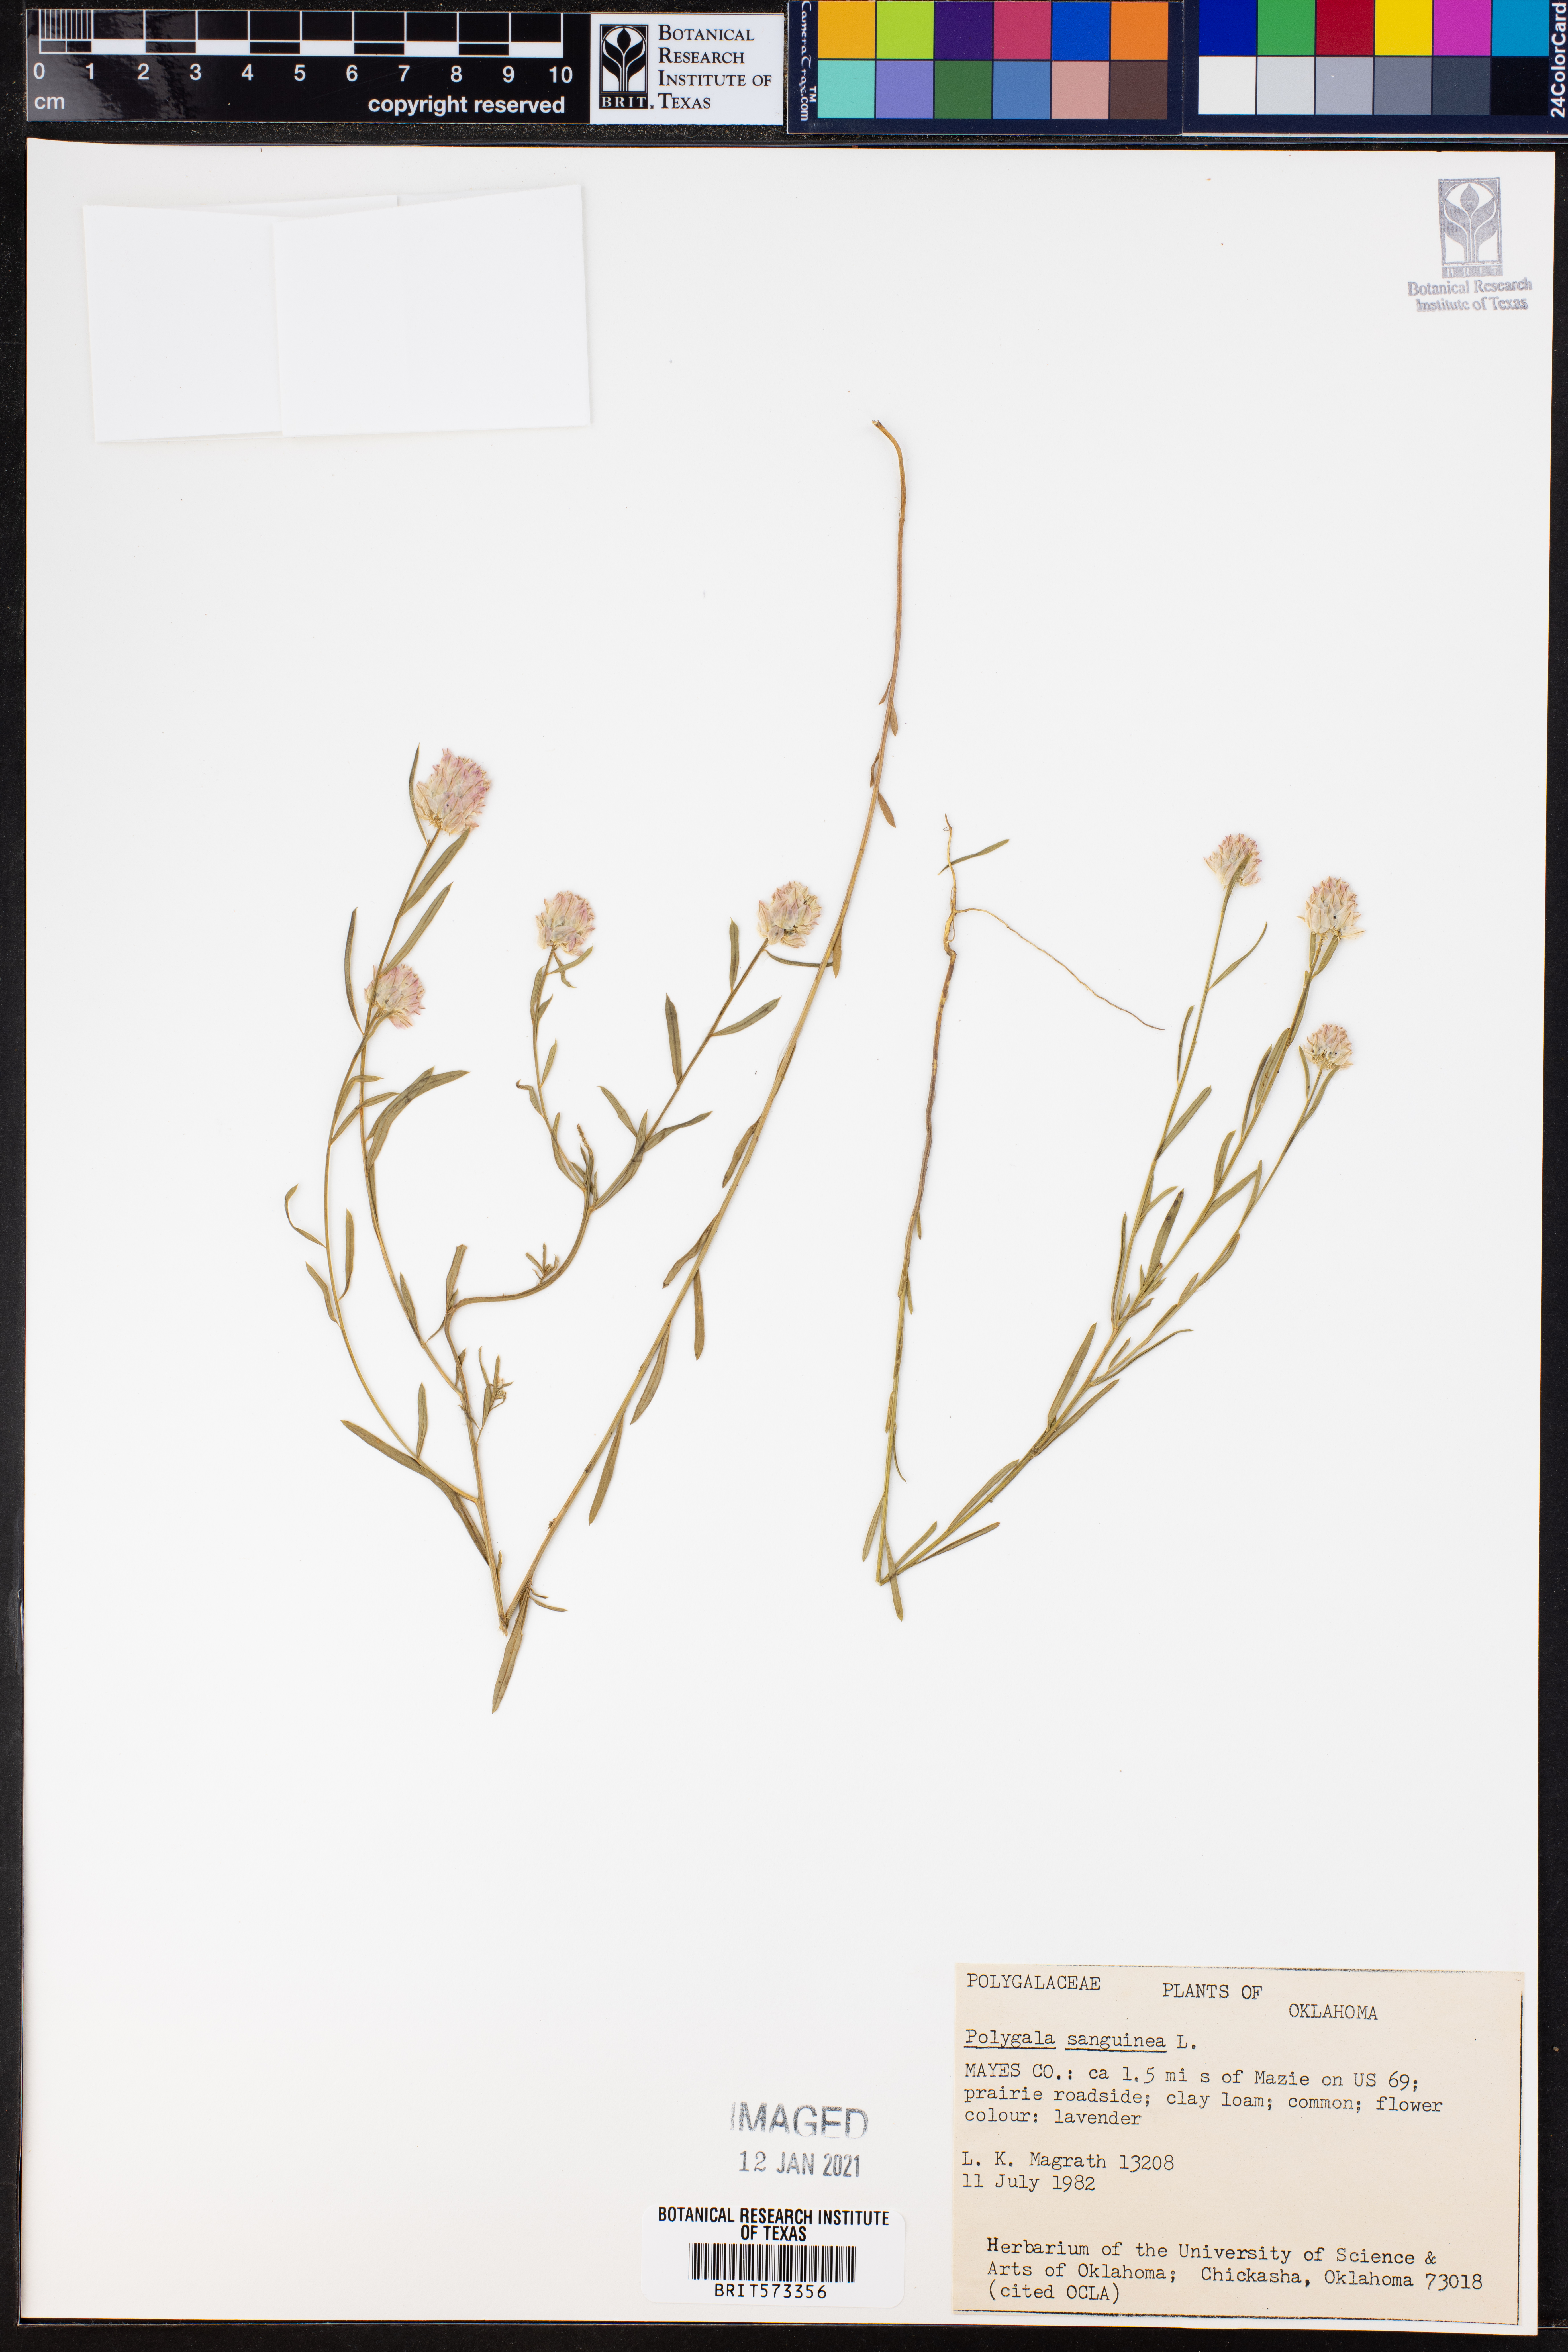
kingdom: Plantae
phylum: Tracheophyta
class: Magnoliopsida
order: Fabales
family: Polygalaceae
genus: Polygala
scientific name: Polygala sanguinea
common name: Blood milkwort
